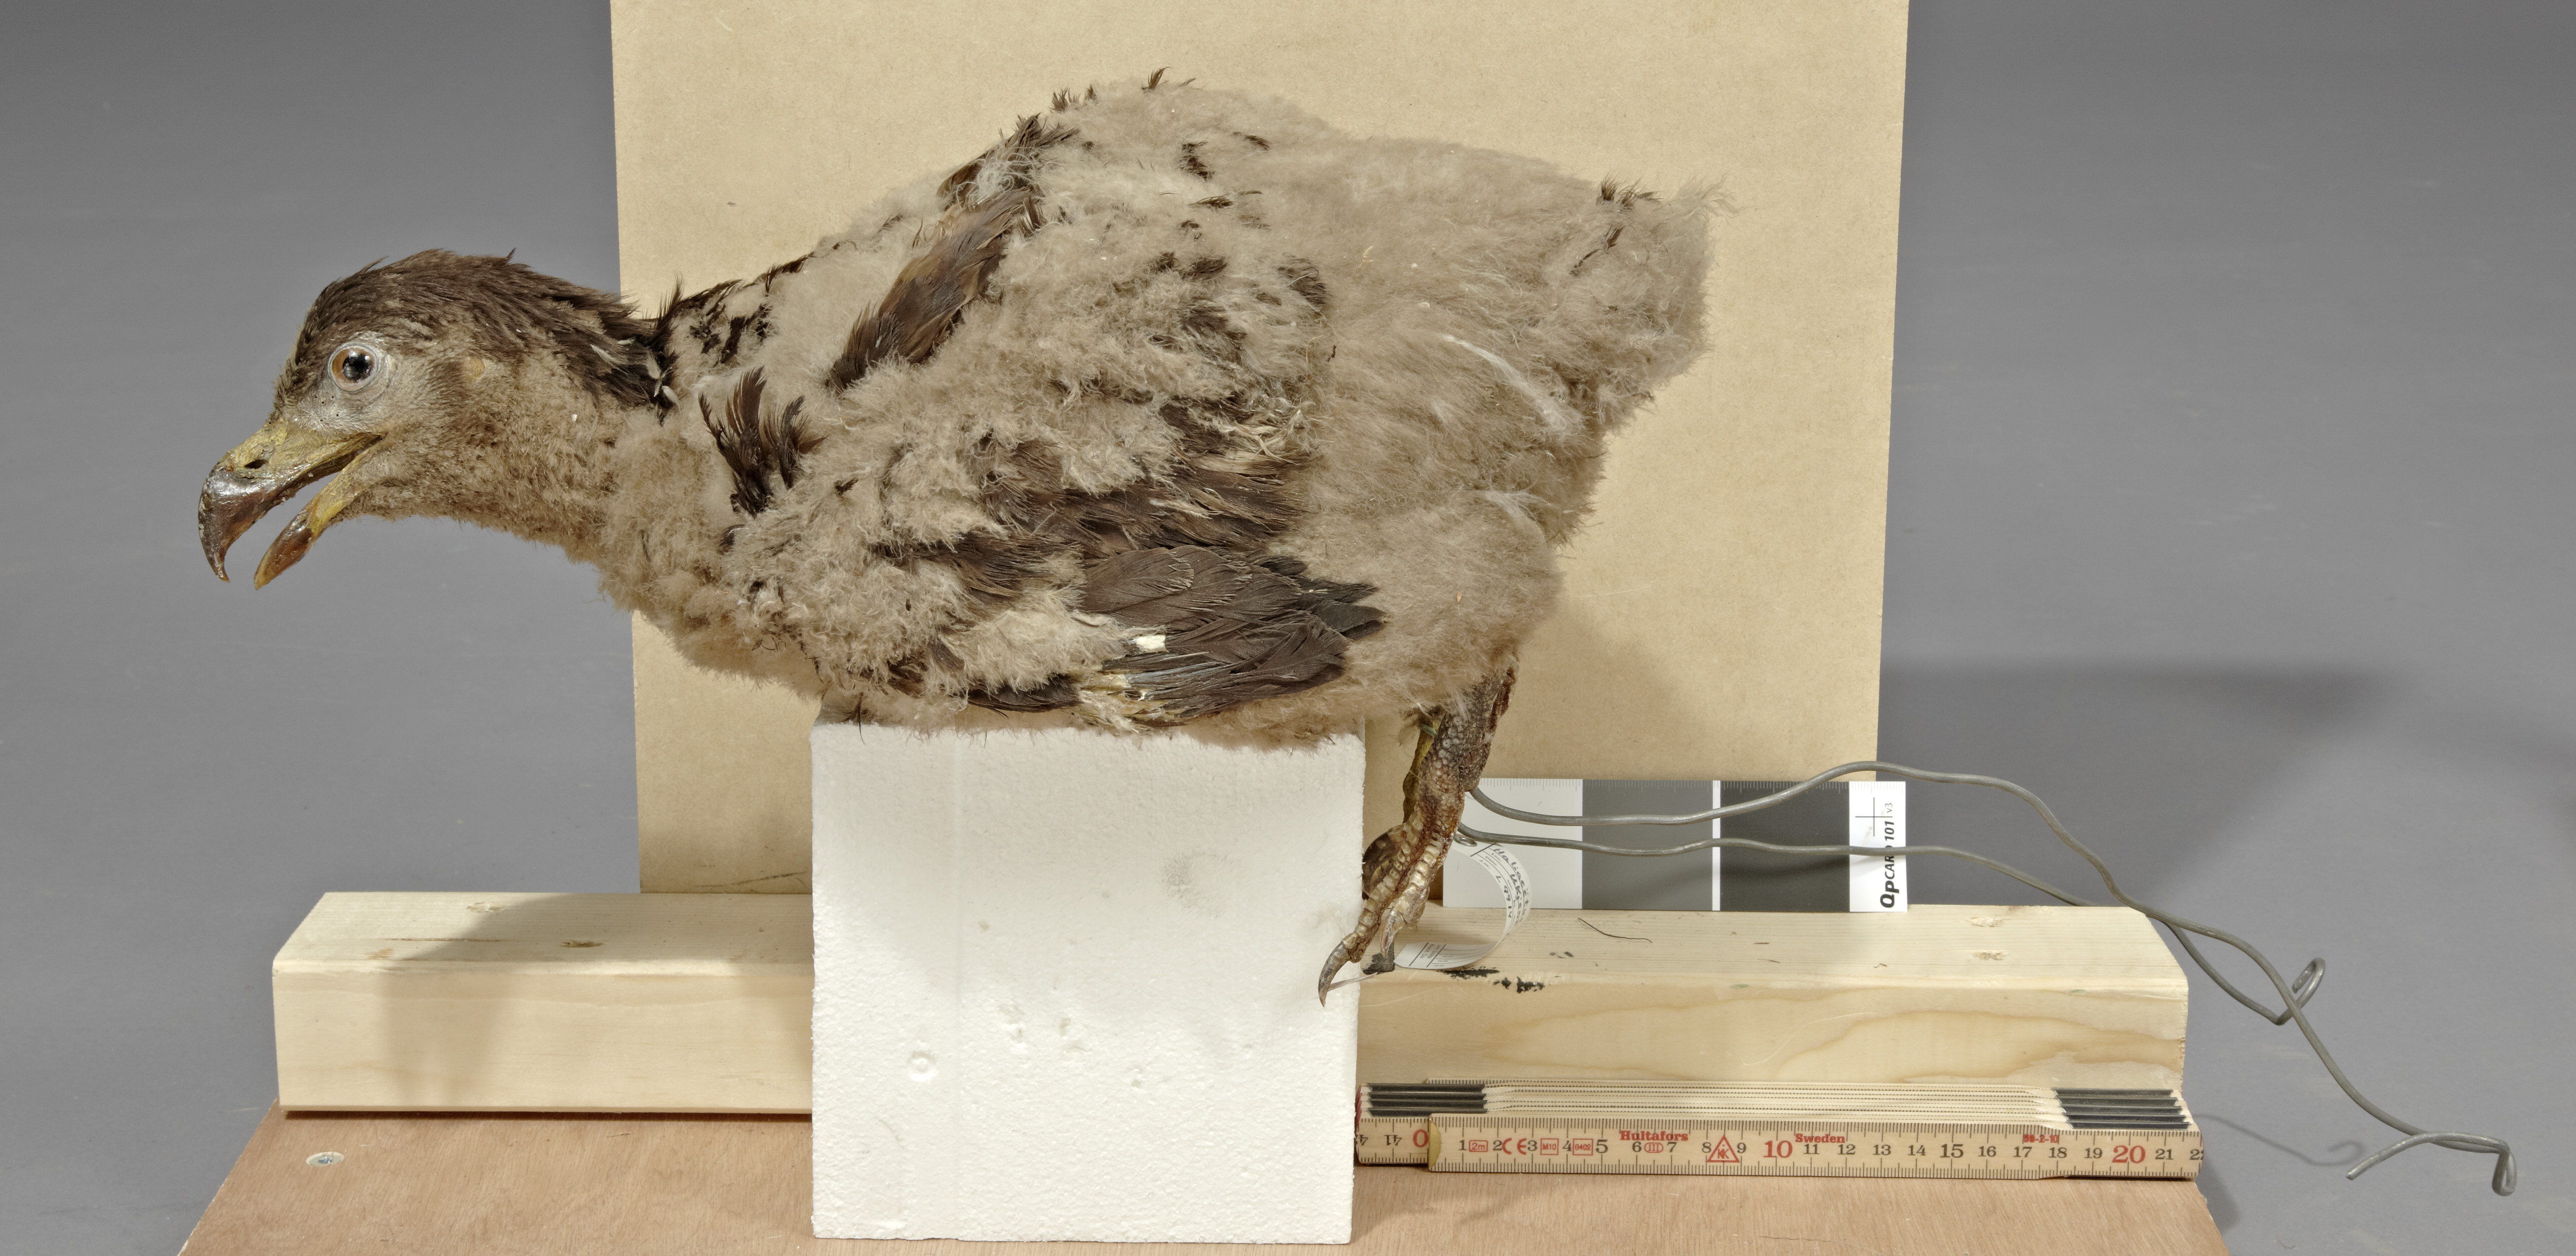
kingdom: Animalia
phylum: Chordata
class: Aves
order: Accipitriformes
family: Accipitridae
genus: Haliaeetus
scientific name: Haliaeetus albicilla
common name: White-tailed eagle
